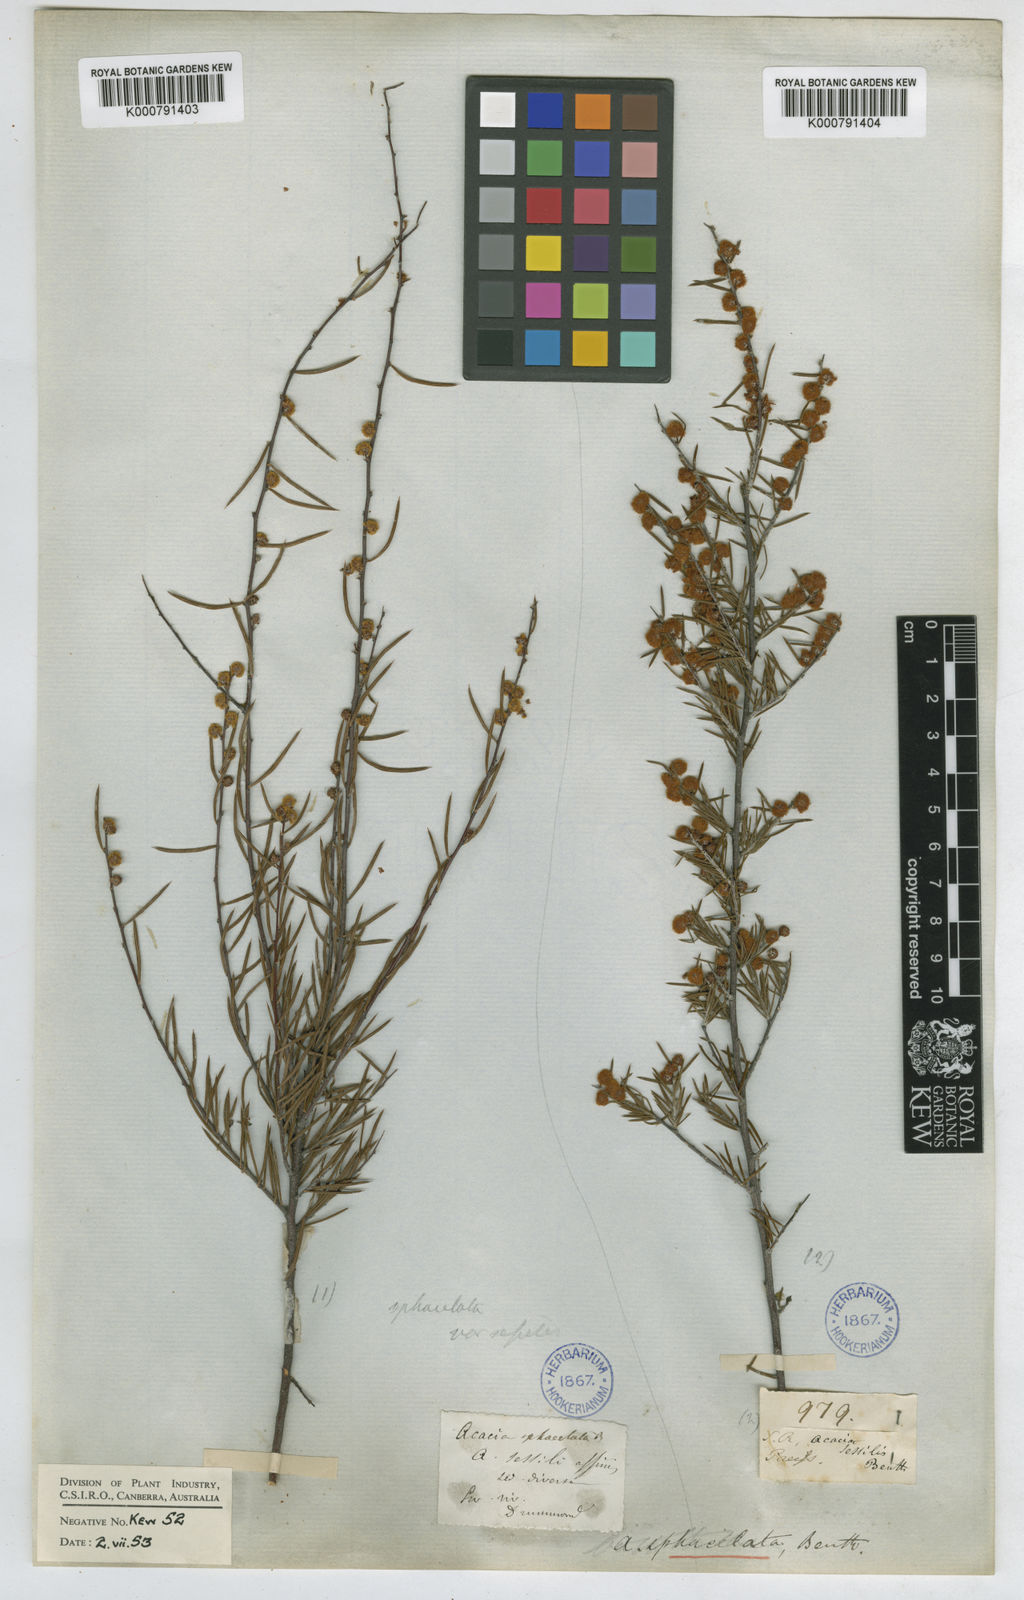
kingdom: Plantae
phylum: Tracheophyta
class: Magnoliopsida
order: Fabales
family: Fabaceae
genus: Acacia
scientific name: Acacia sphacelata
